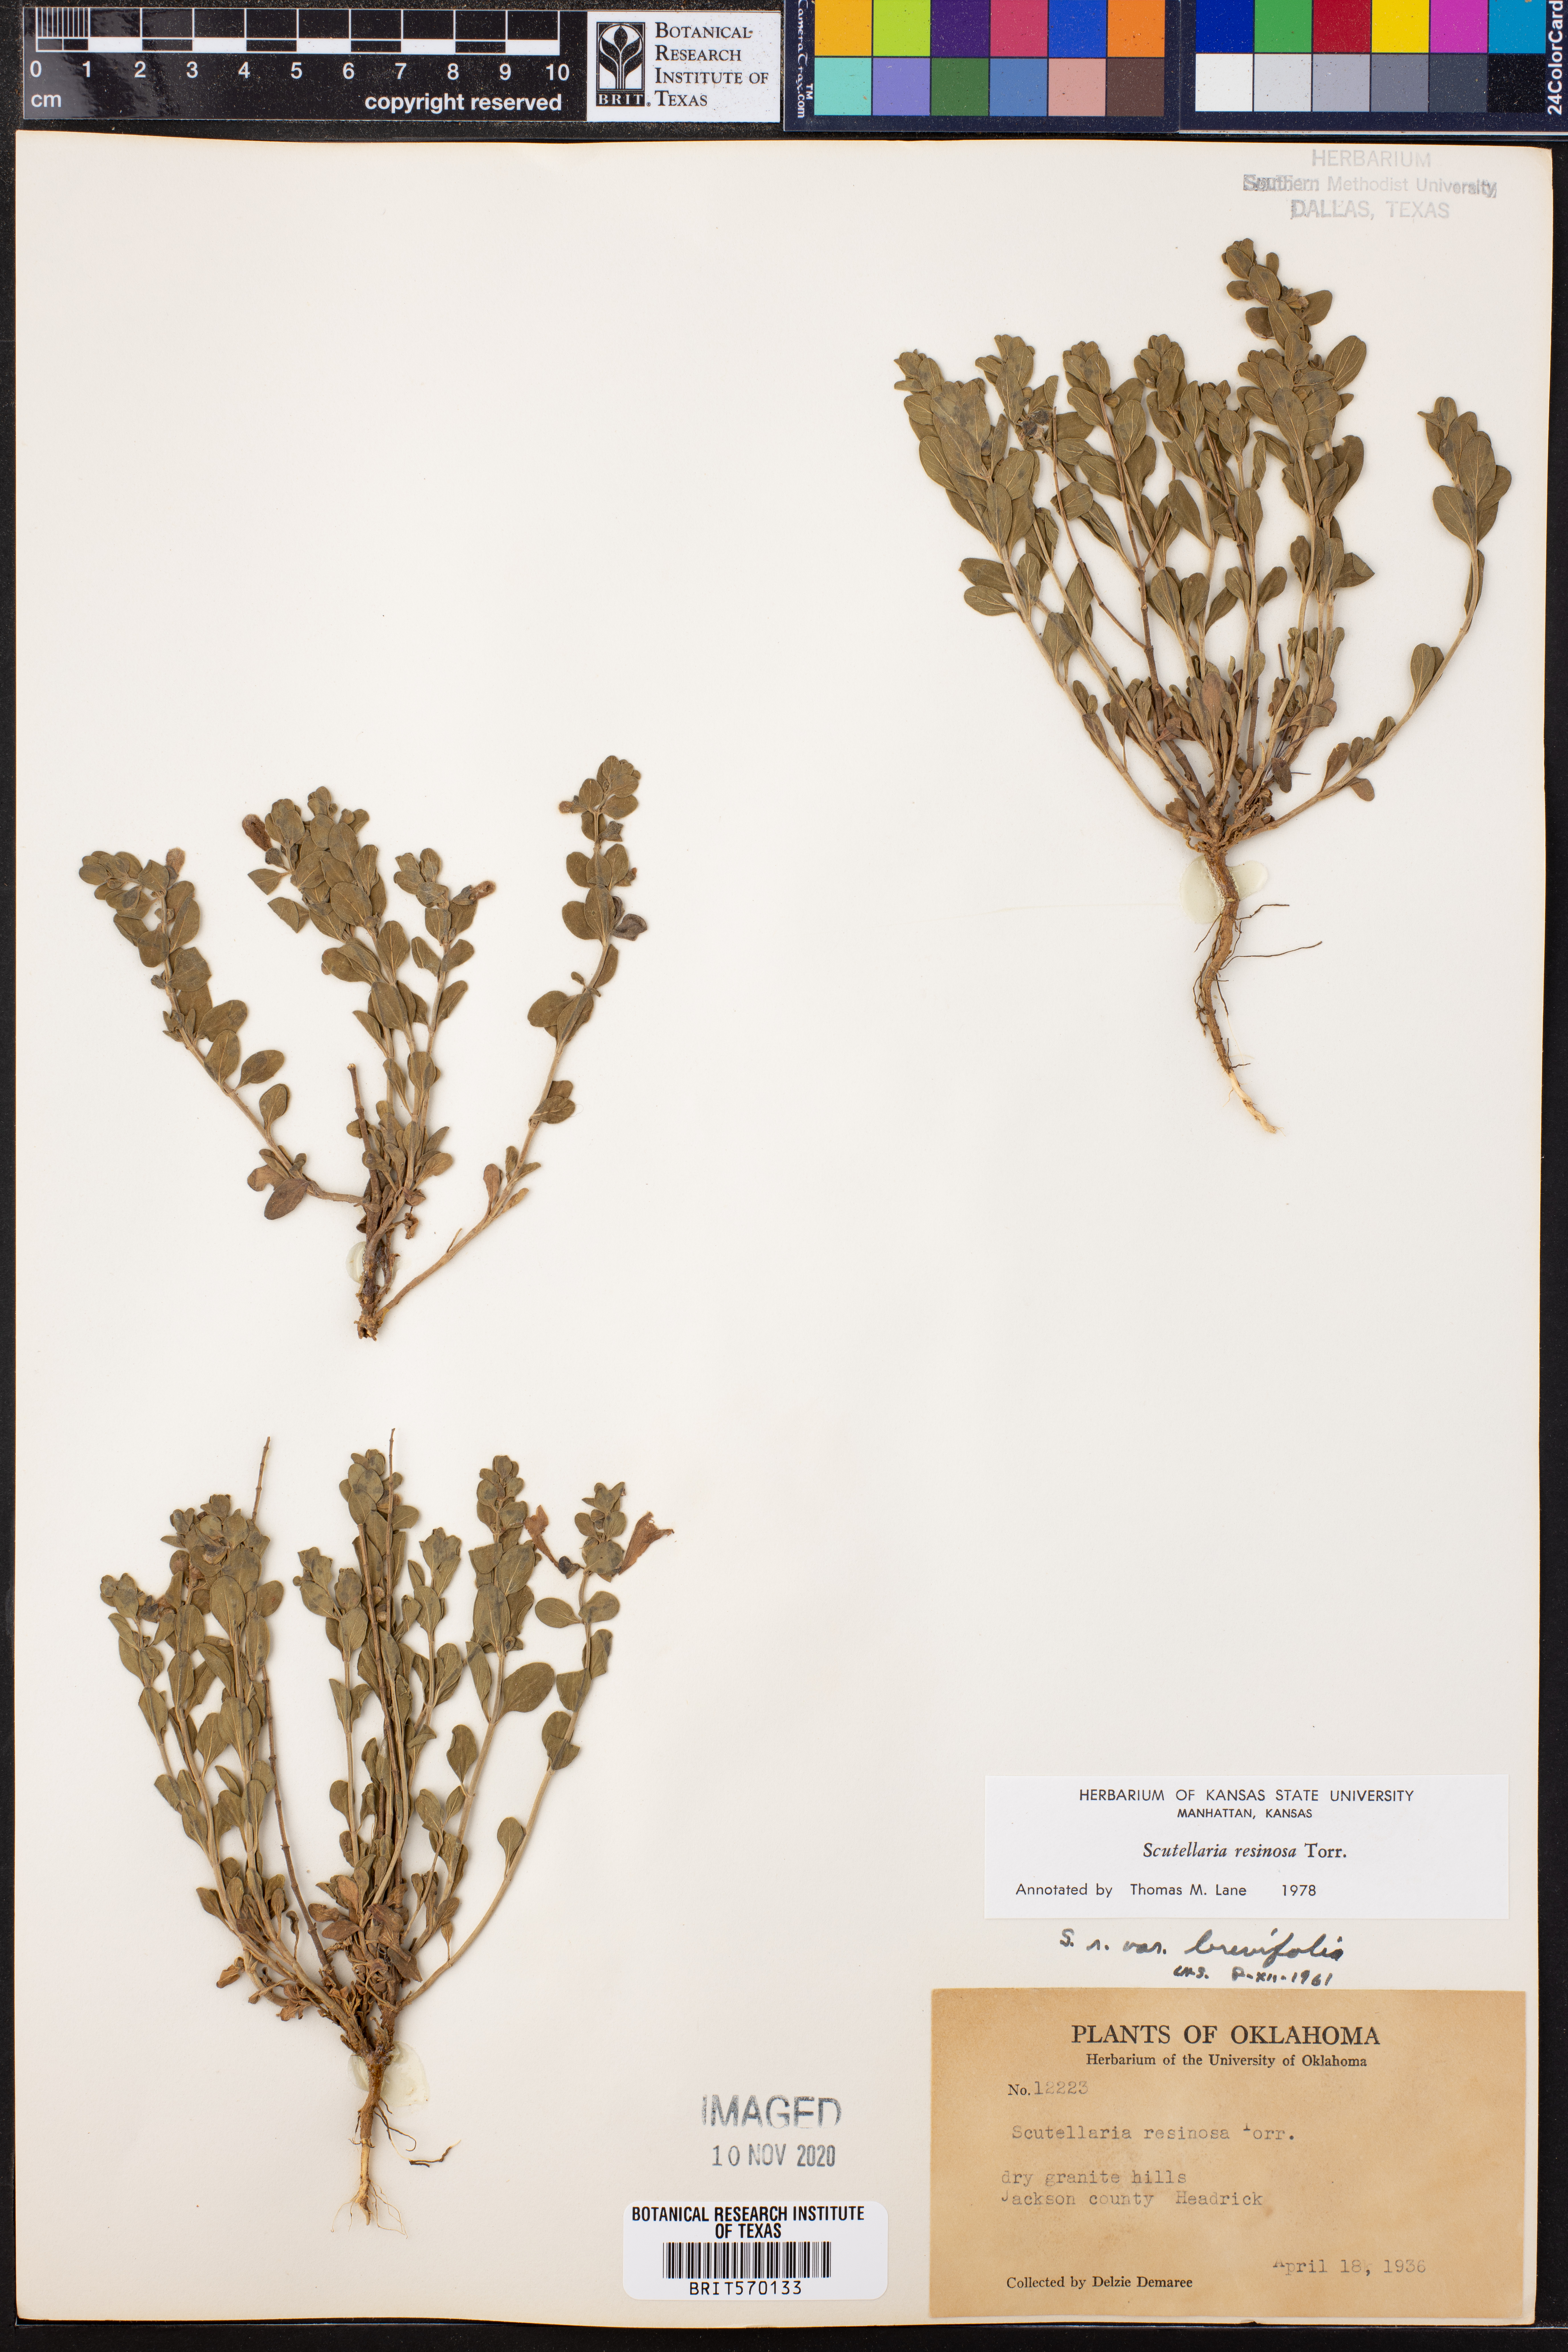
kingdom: Plantae
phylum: Tracheophyta
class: Magnoliopsida
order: Lamiales
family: Lamiaceae
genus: Scutellaria
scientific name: Scutellaria resinosa
